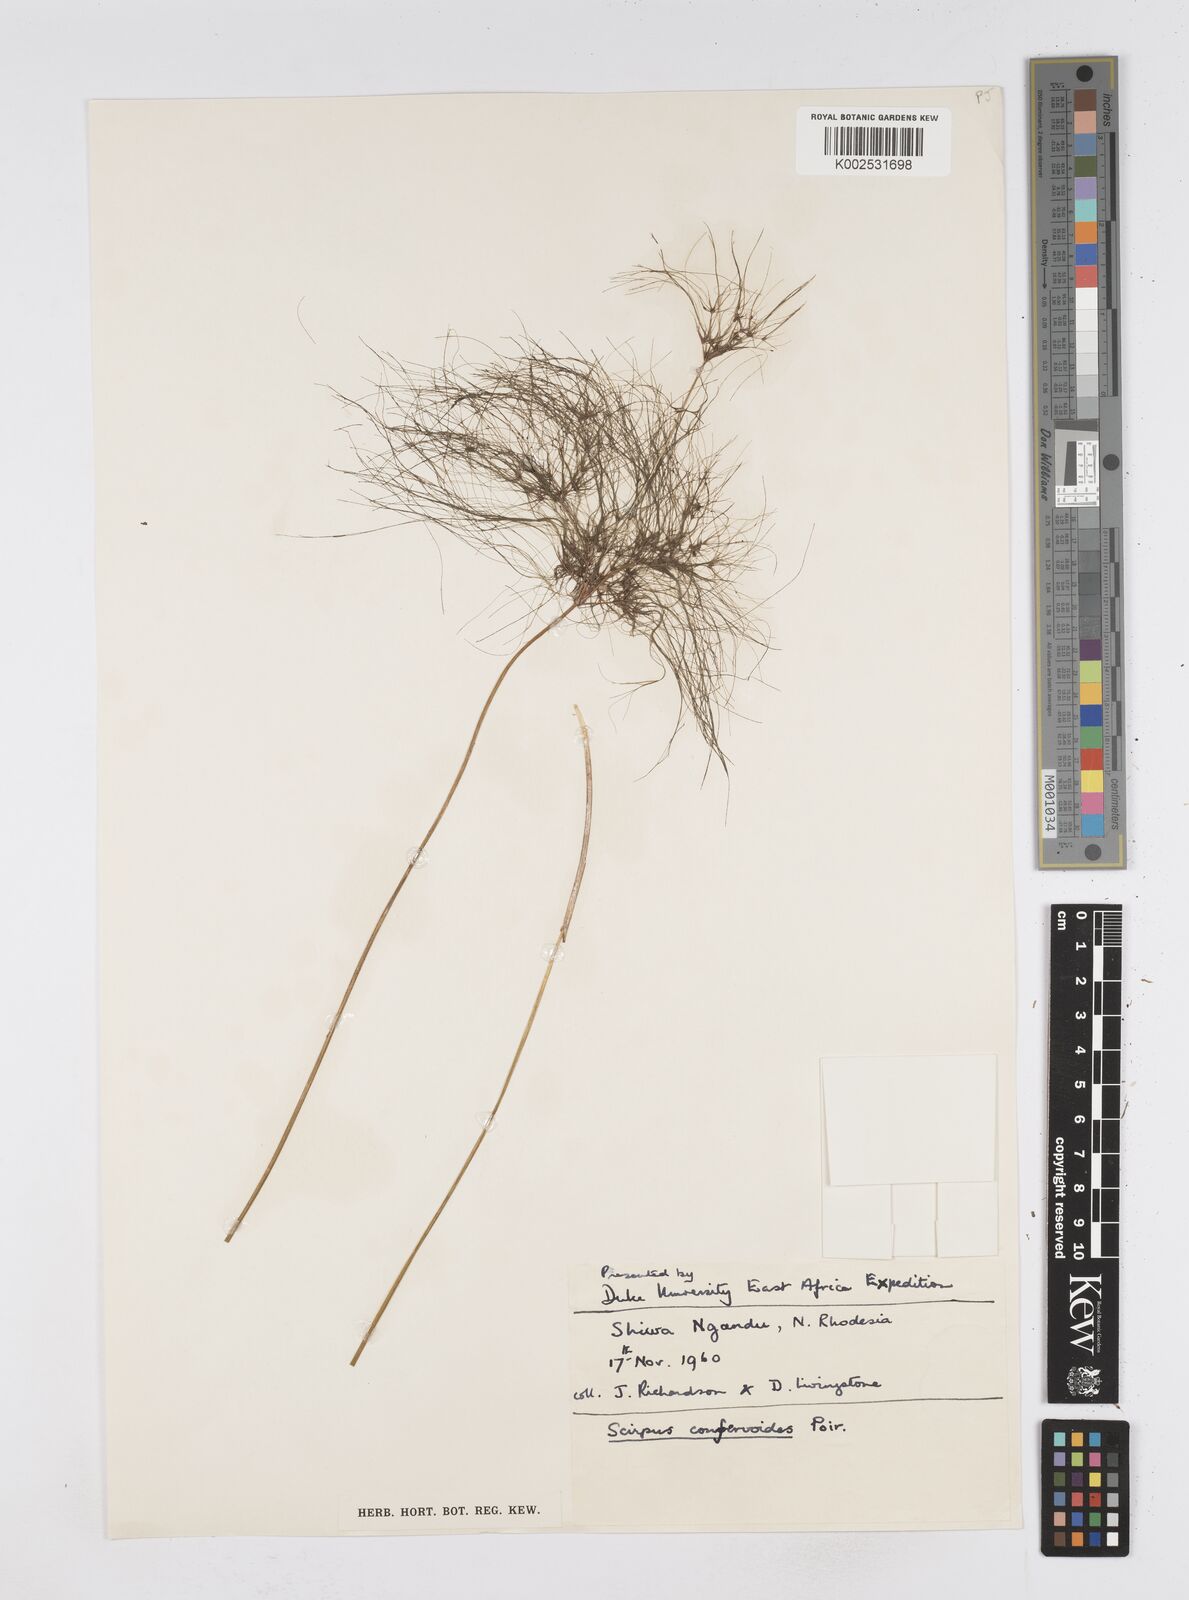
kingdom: Plantae
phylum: Tracheophyta
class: Liliopsida
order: Poales
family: Cyperaceae
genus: Eleocharis
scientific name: Eleocharis confervoides
